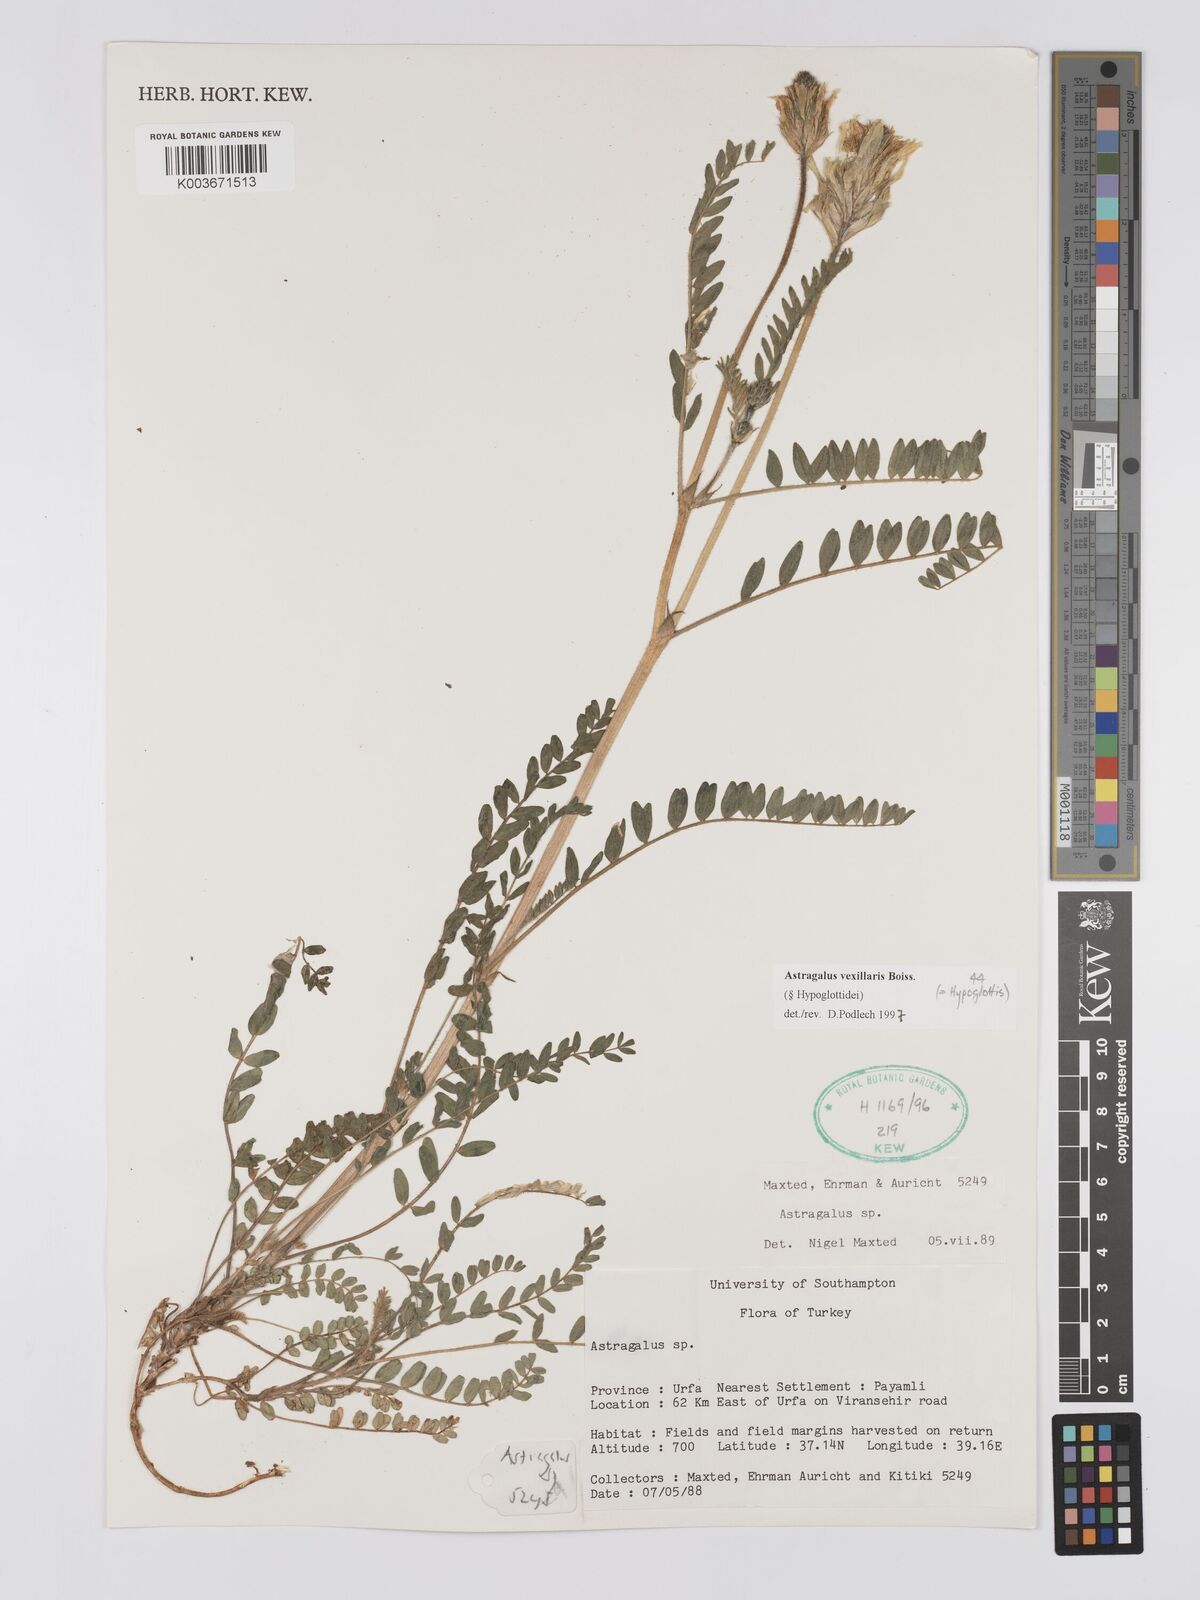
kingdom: Plantae
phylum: Tracheophyta
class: Magnoliopsida
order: Fabales
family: Fabaceae
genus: Astragalus
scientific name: Astragalus vexillaris
